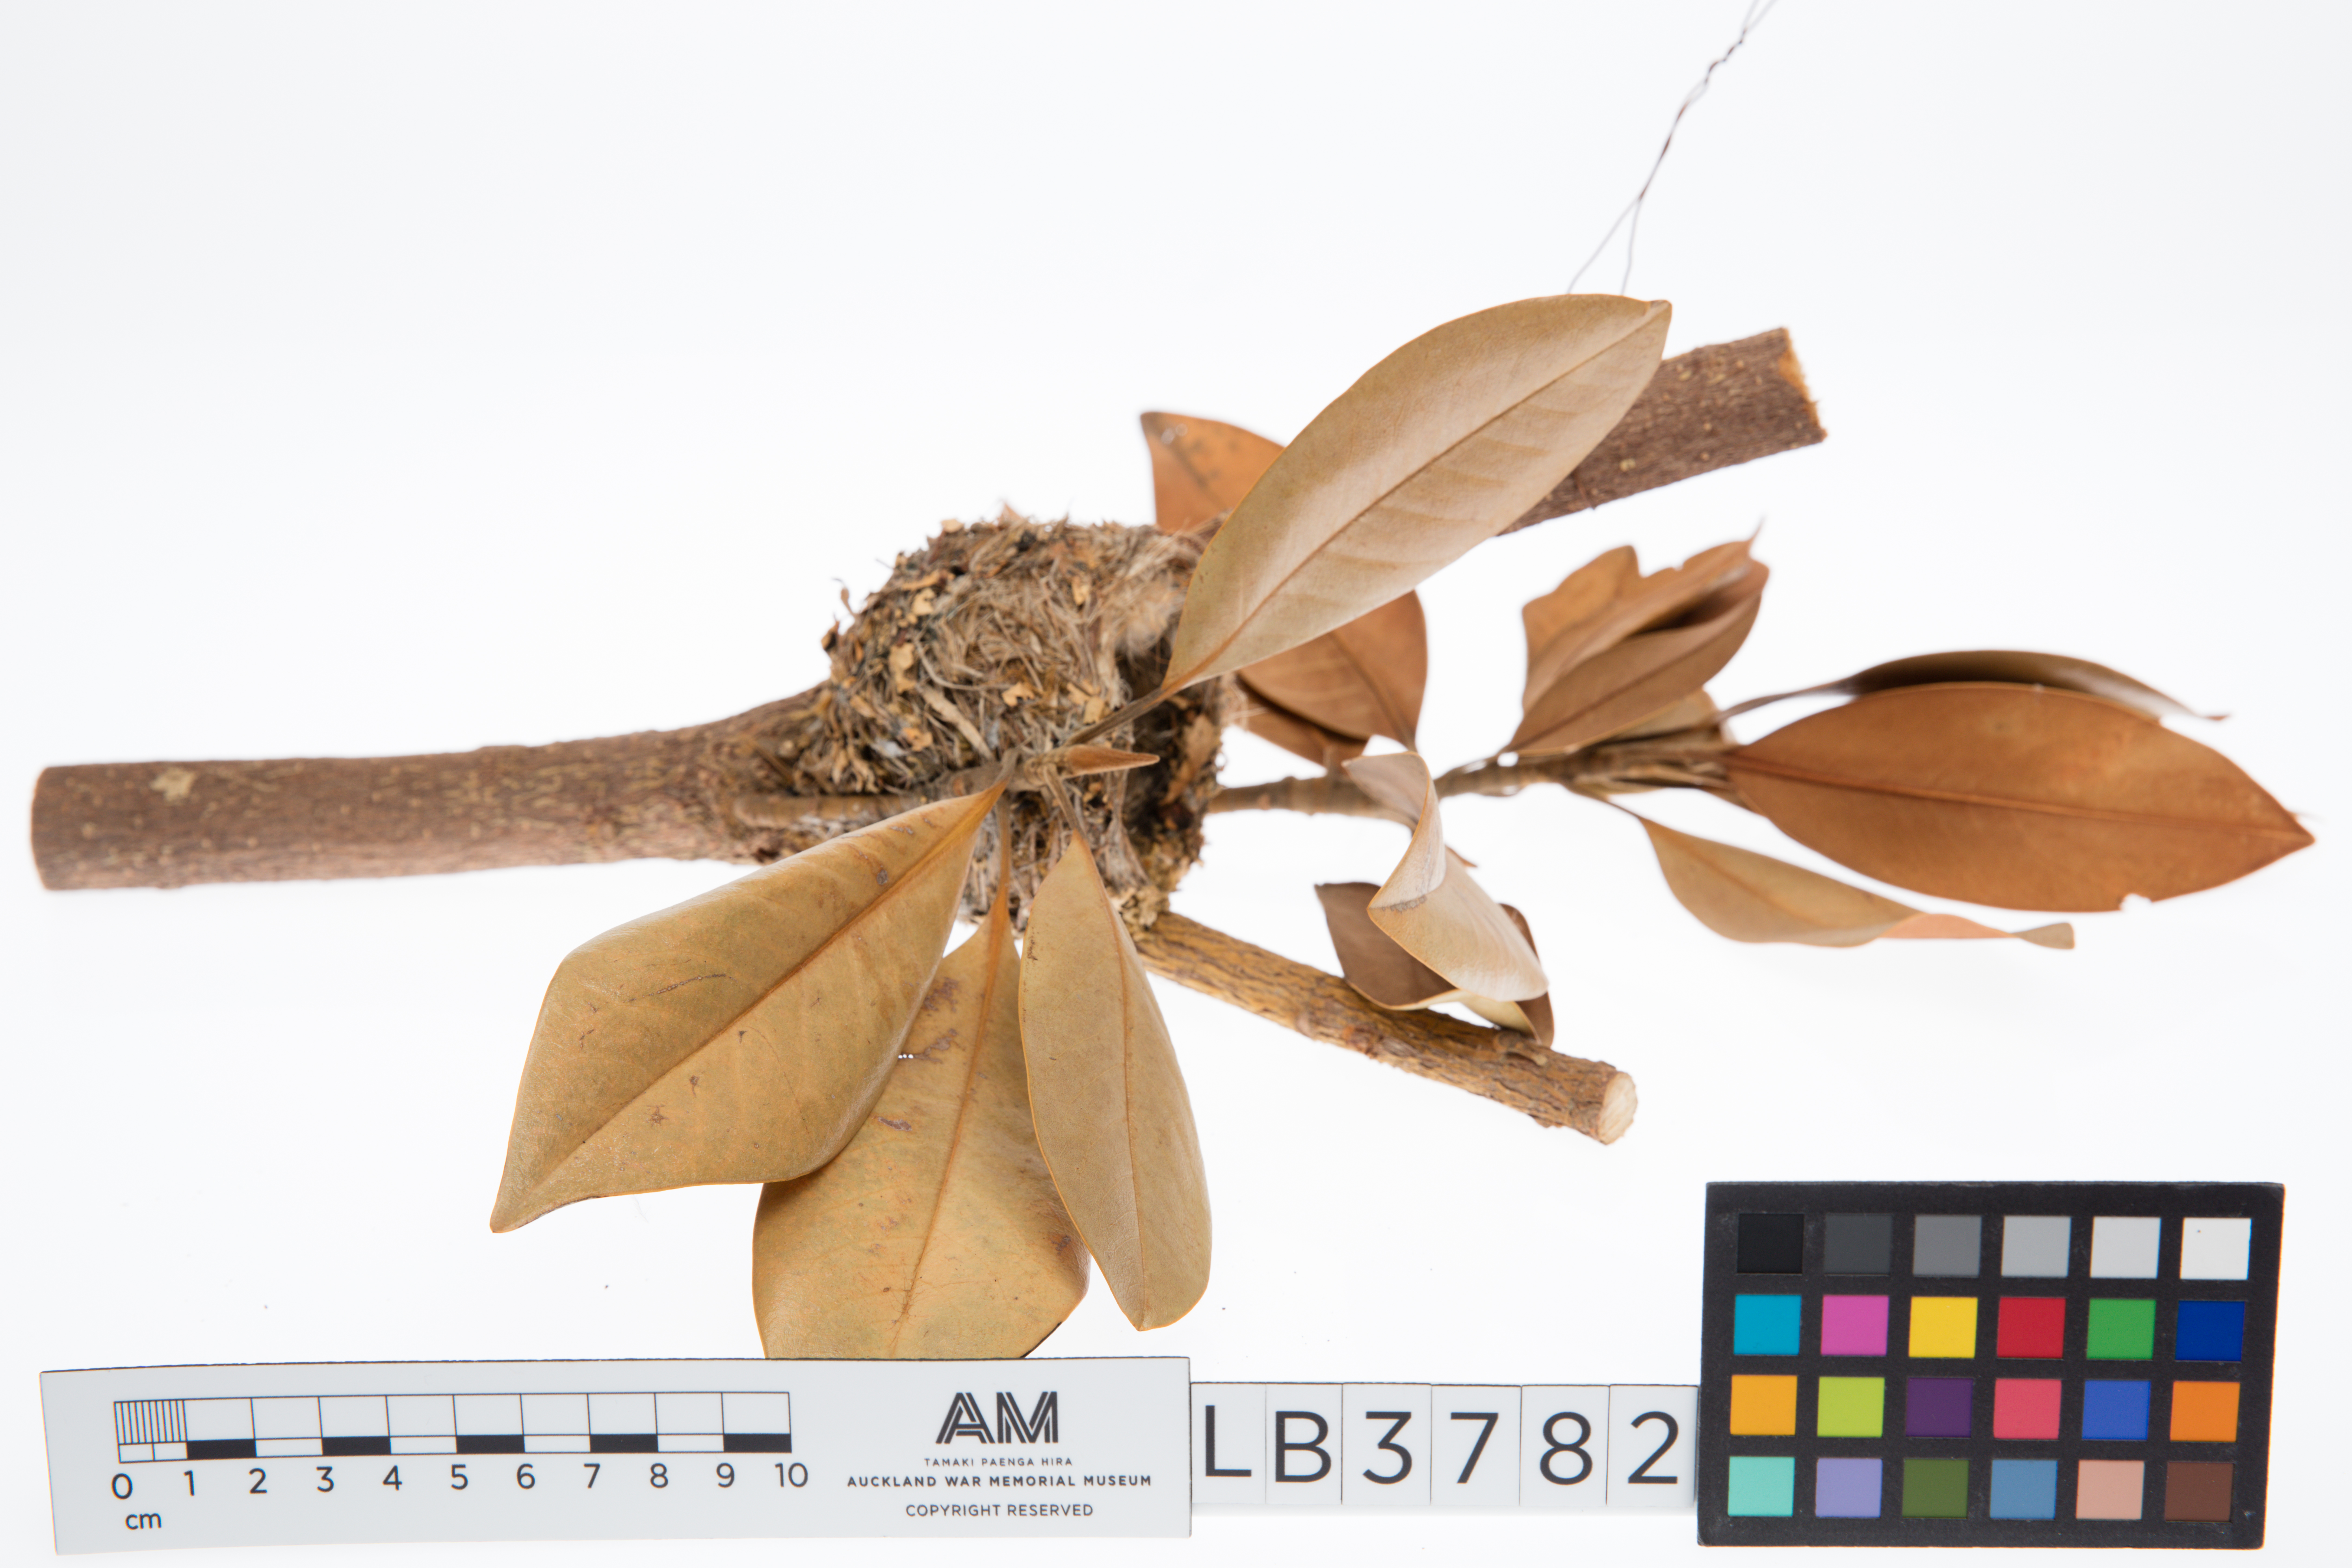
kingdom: Animalia
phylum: Chordata
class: Aves
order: Passeriformes
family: Fringillidae
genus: Fringilla
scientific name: Fringilla coelebs
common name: Common chaffinch
